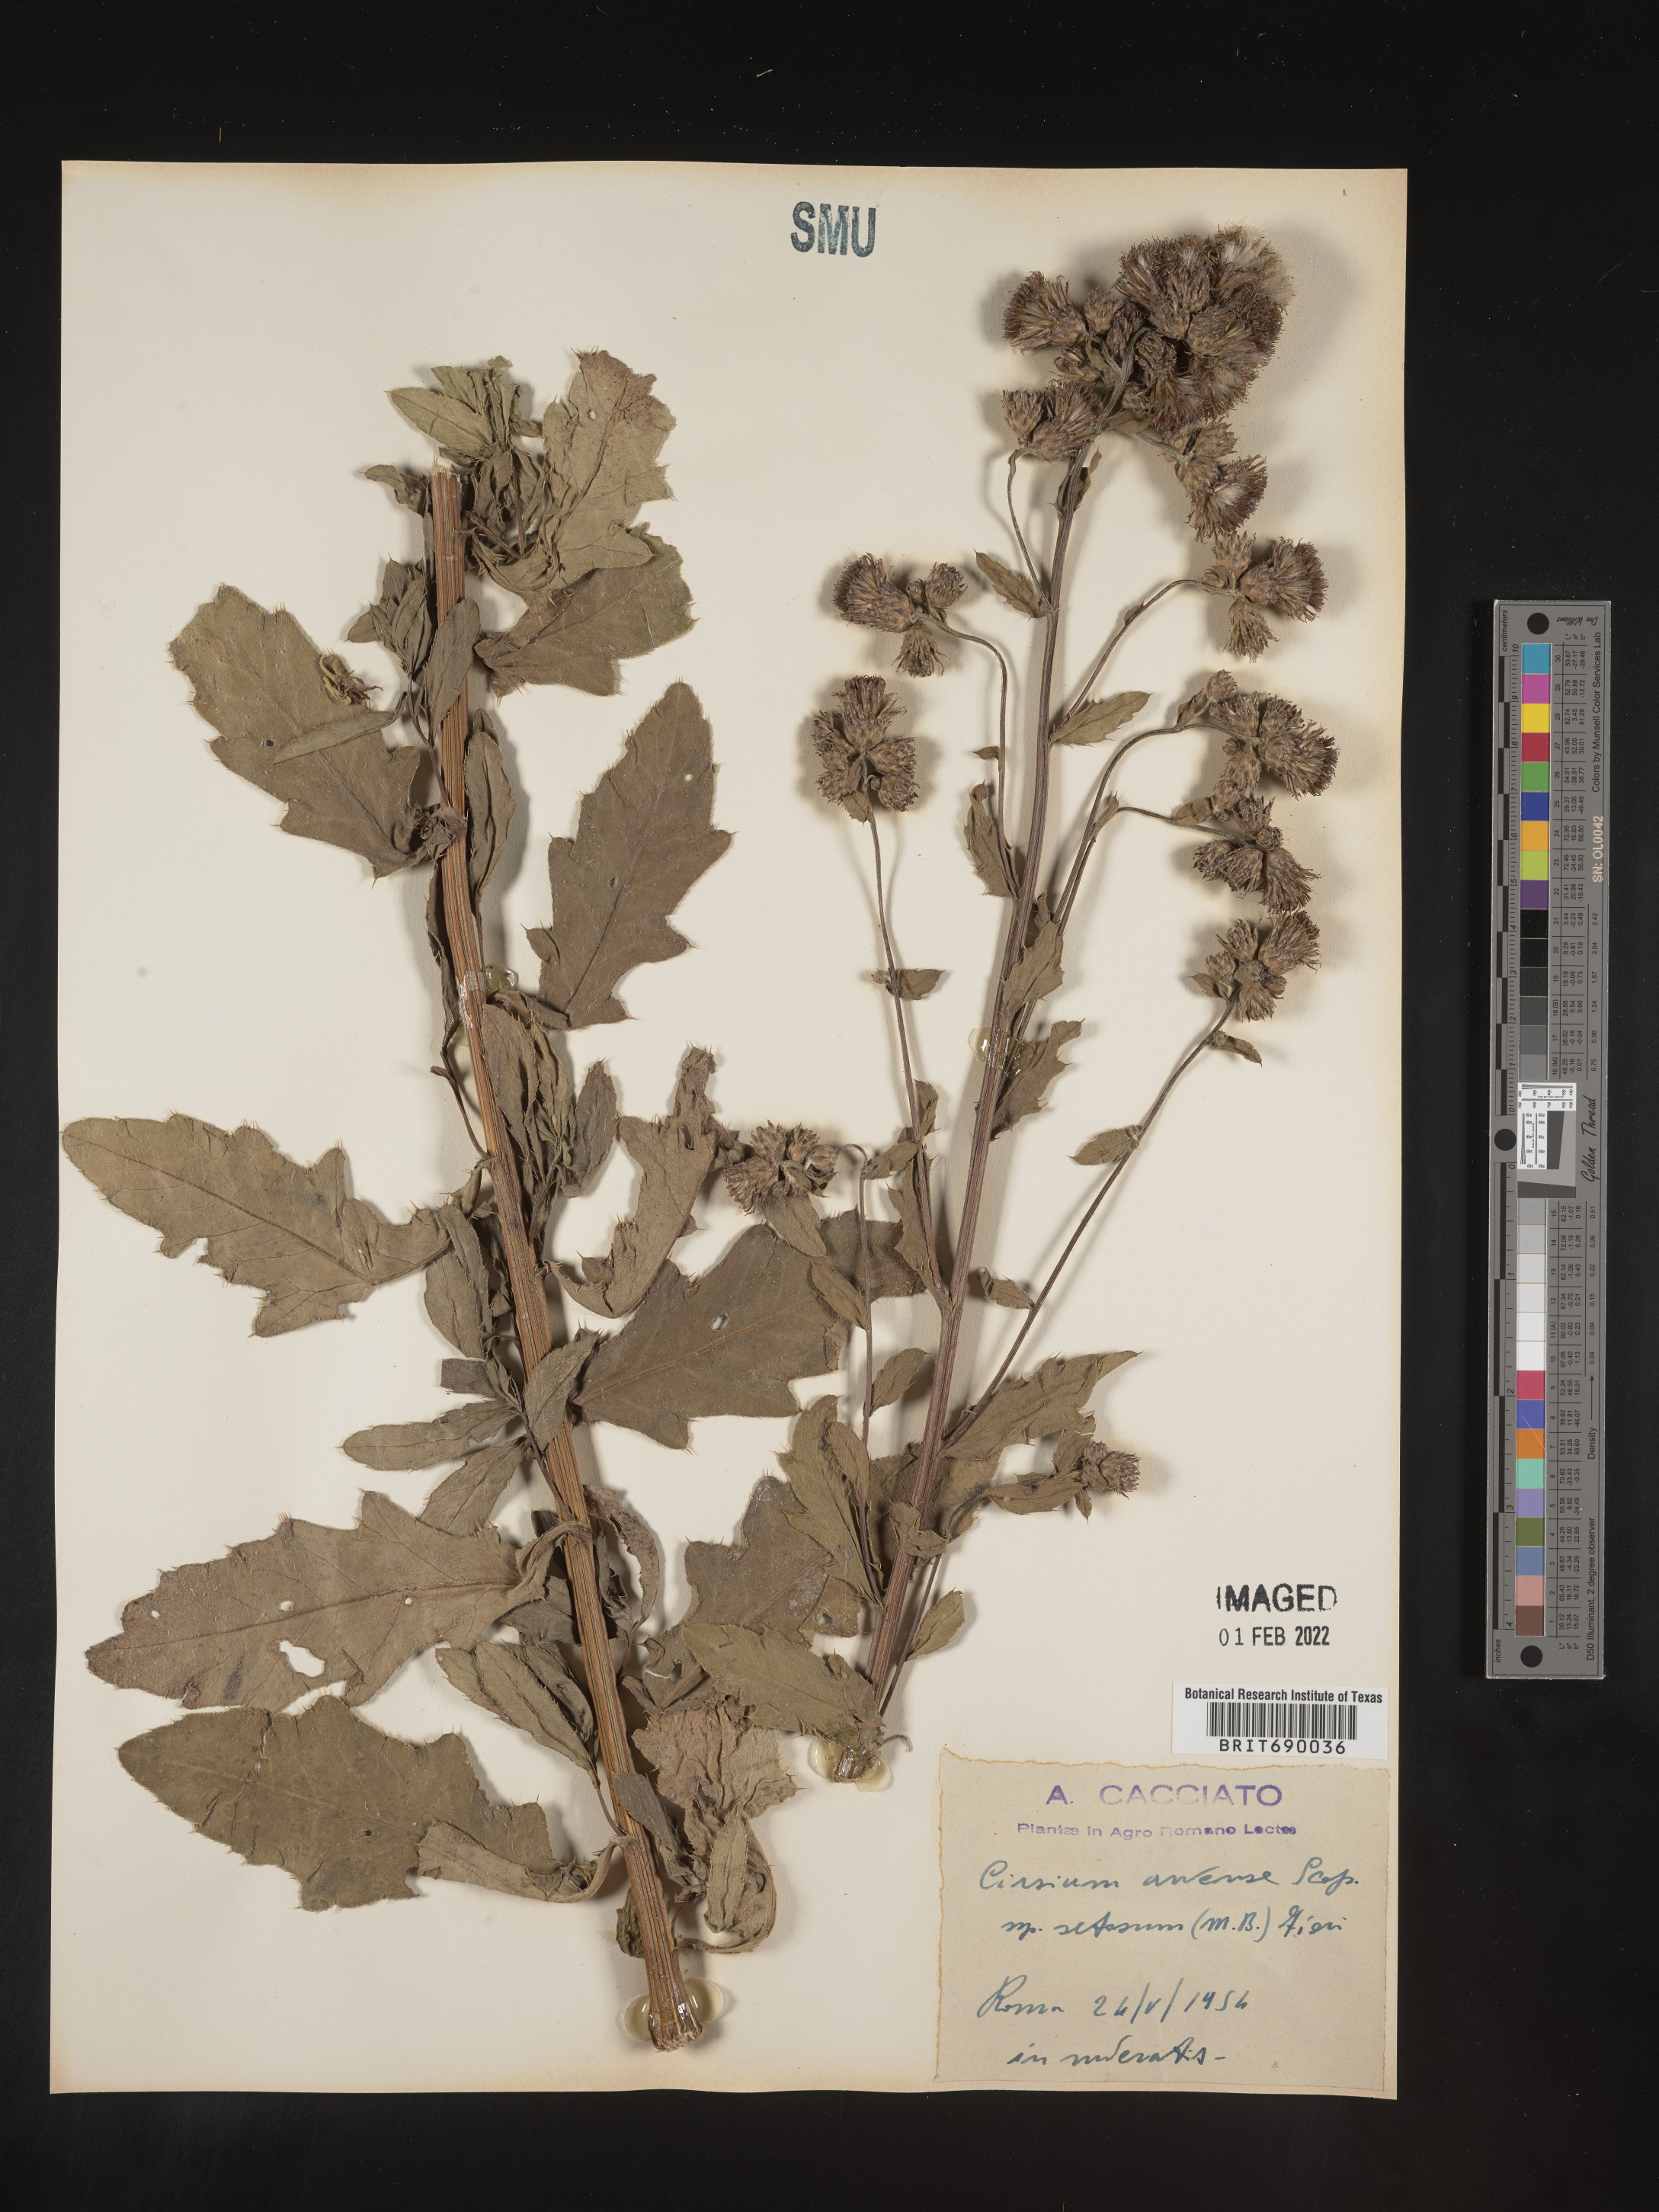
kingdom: Plantae
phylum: Tracheophyta
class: Magnoliopsida
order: Asterales
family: Asteraceae
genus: Cirsium
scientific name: Cirsium
